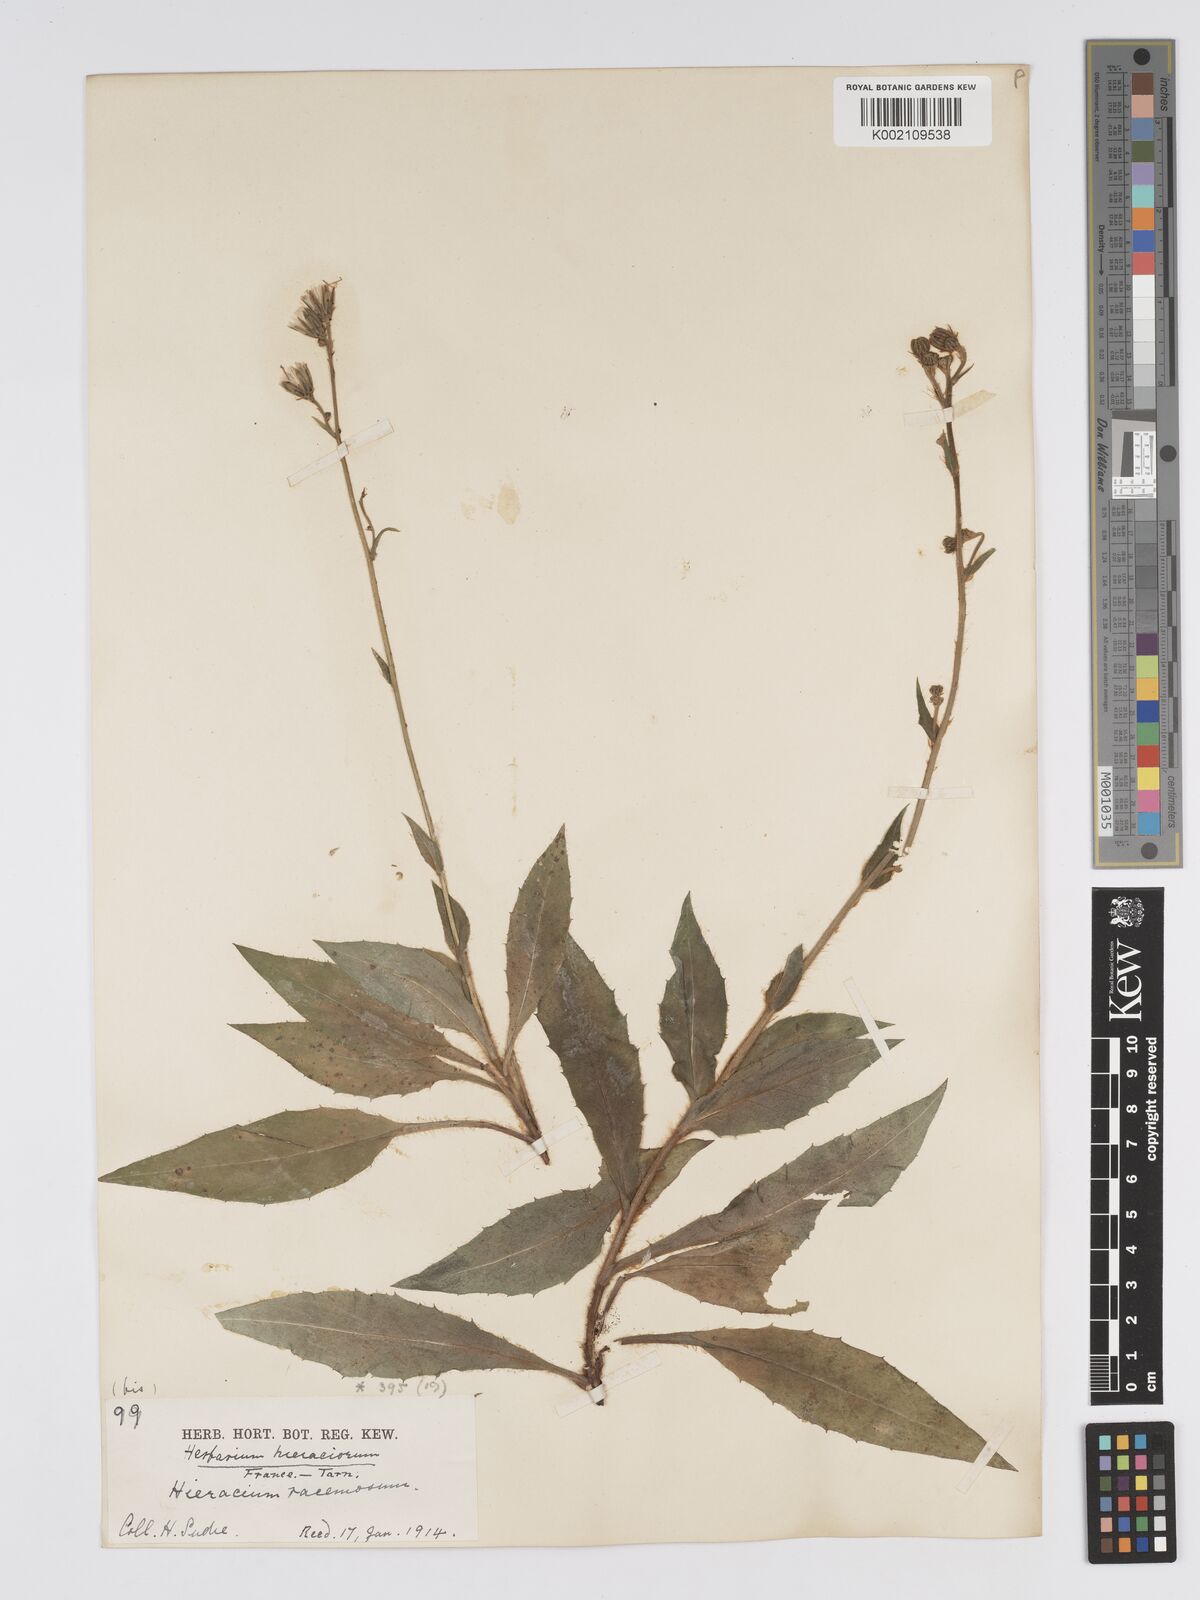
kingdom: Plantae
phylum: Tracheophyta
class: Magnoliopsida
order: Asterales
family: Asteraceae
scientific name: Asteraceae
